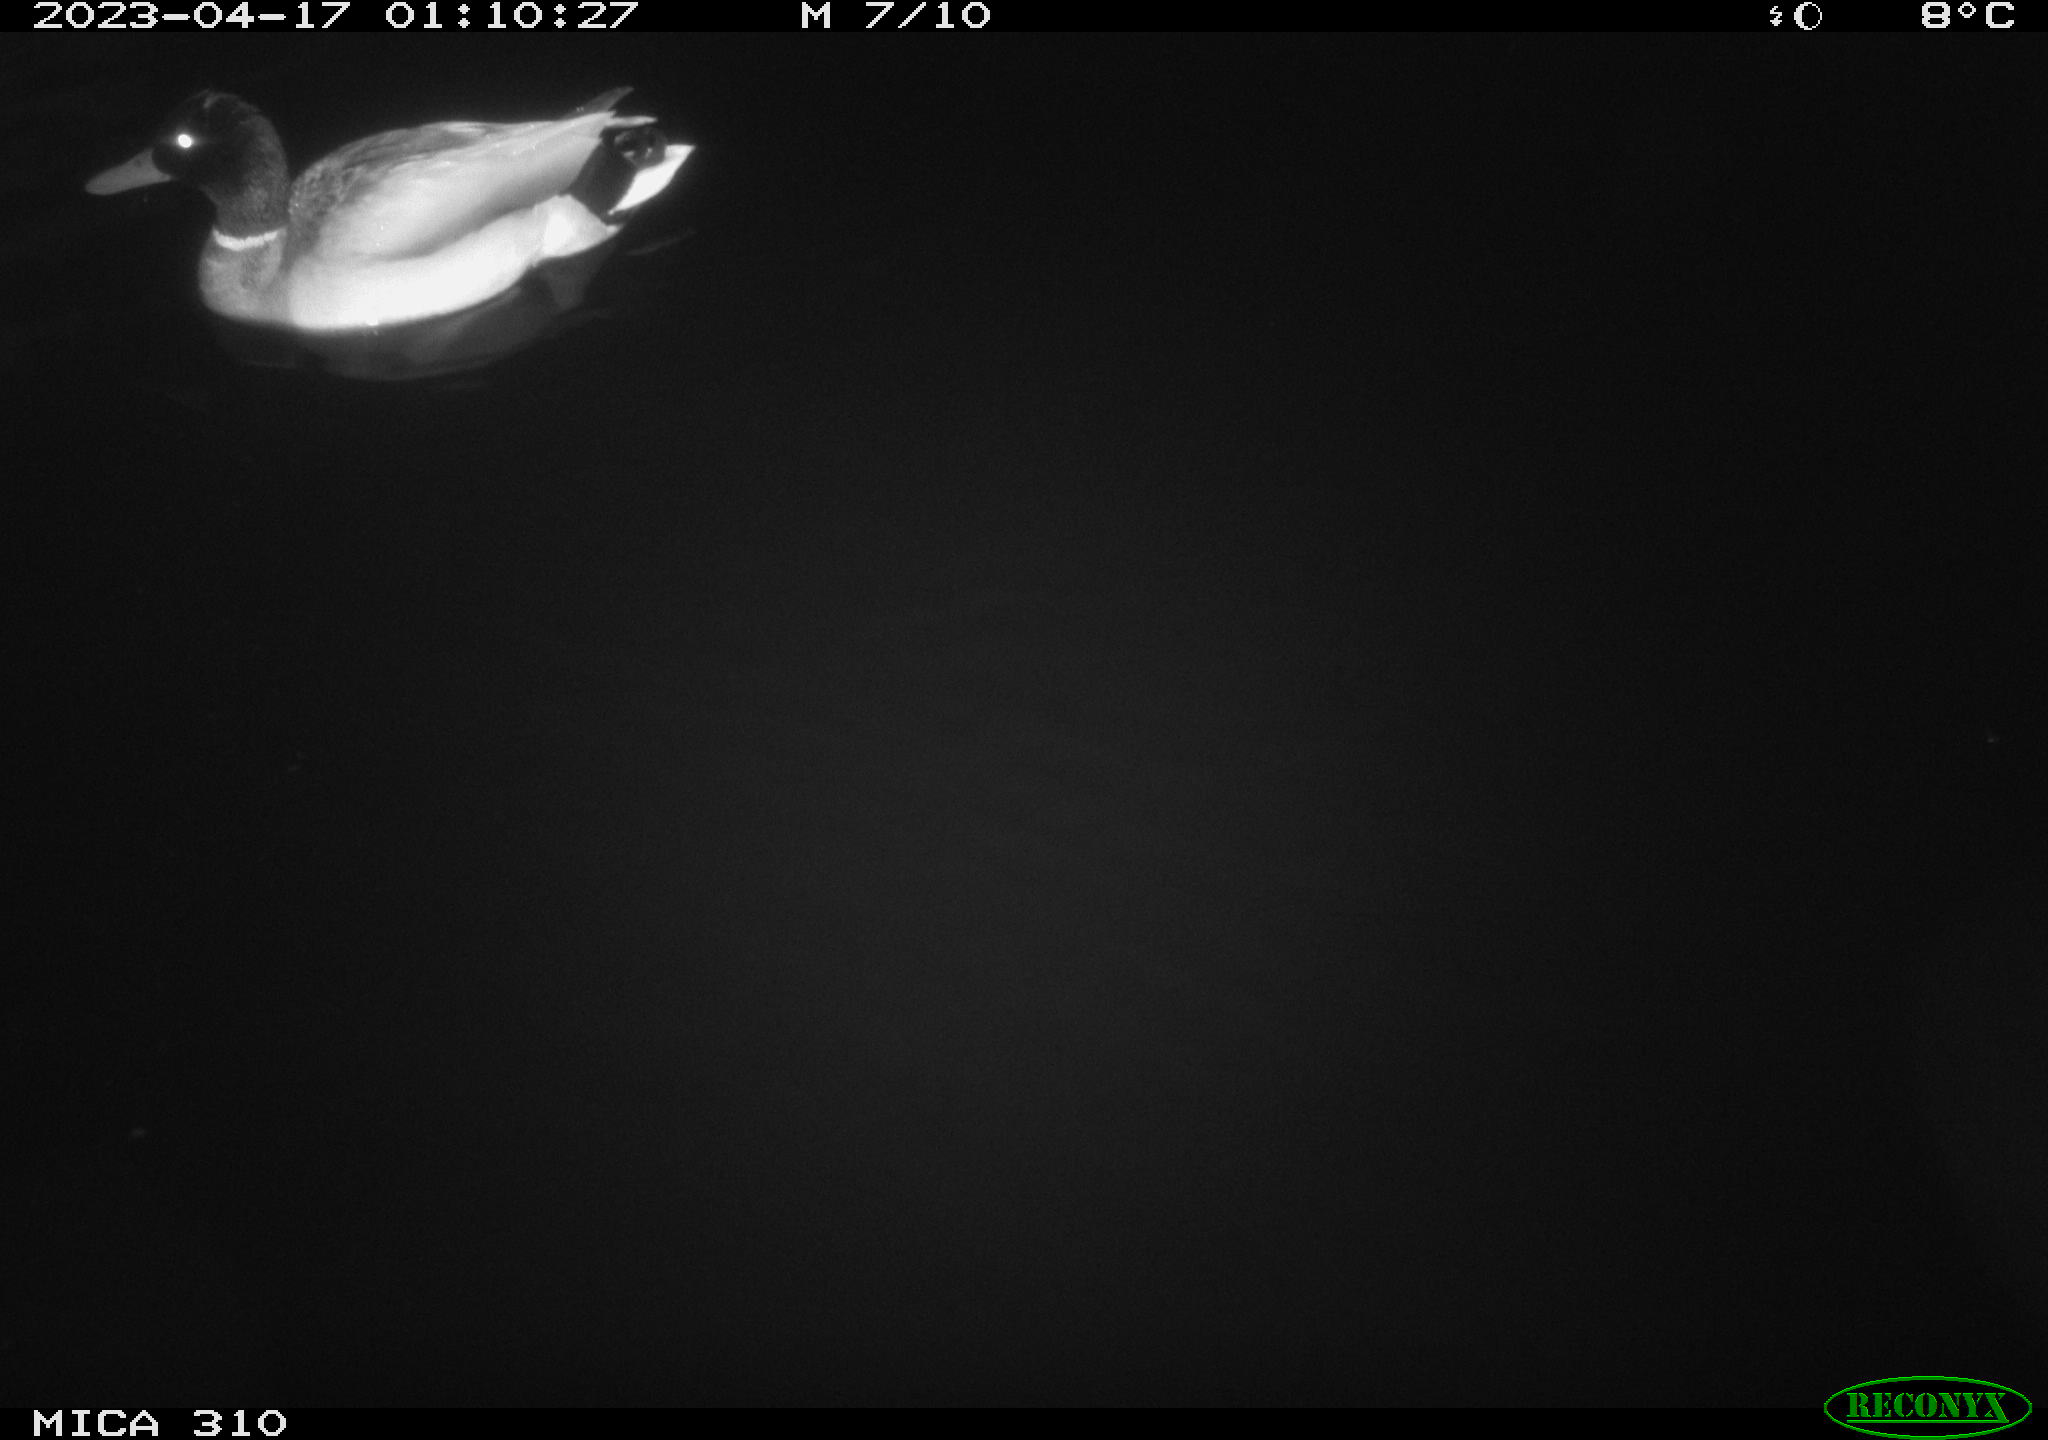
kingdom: Animalia
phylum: Chordata
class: Aves
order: Anseriformes
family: Anatidae
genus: Anas
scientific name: Anas
